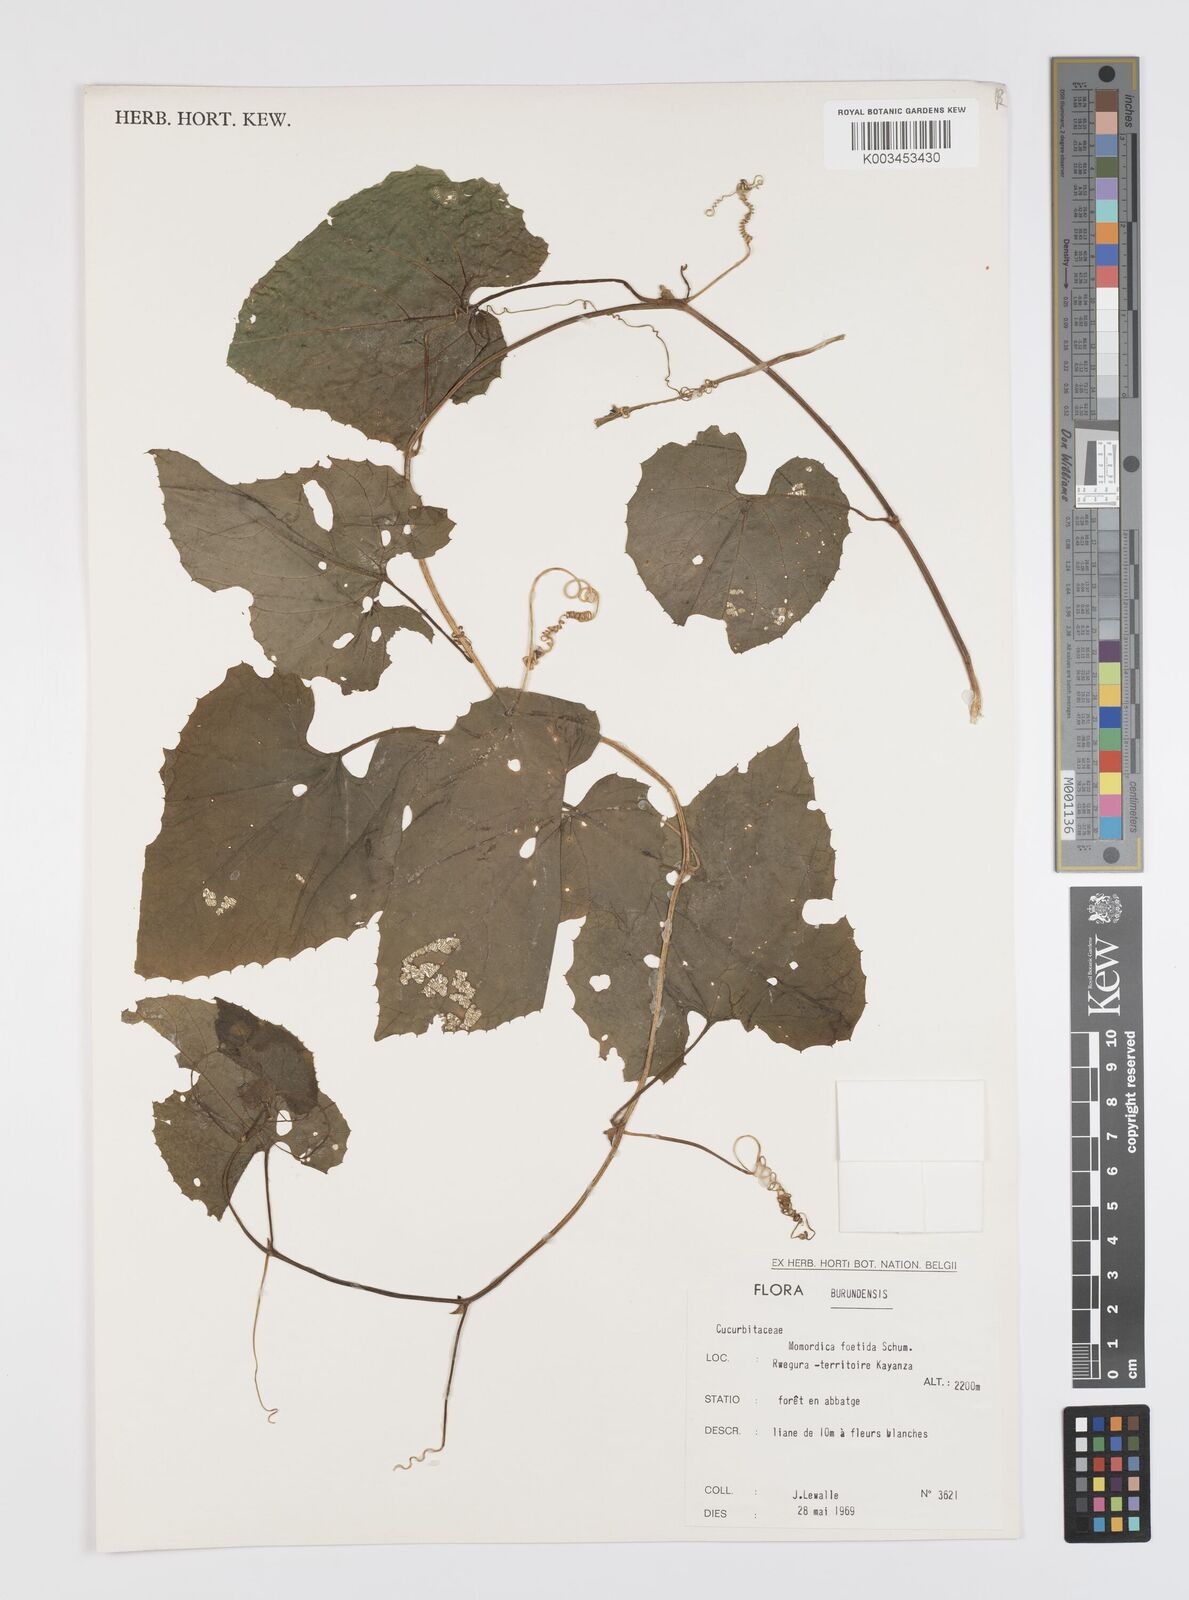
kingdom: Plantae
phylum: Tracheophyta
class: Magnoliopsida
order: Cucurbitales
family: Cucurbitaceae
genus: Momordica
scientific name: Momordica foetida
